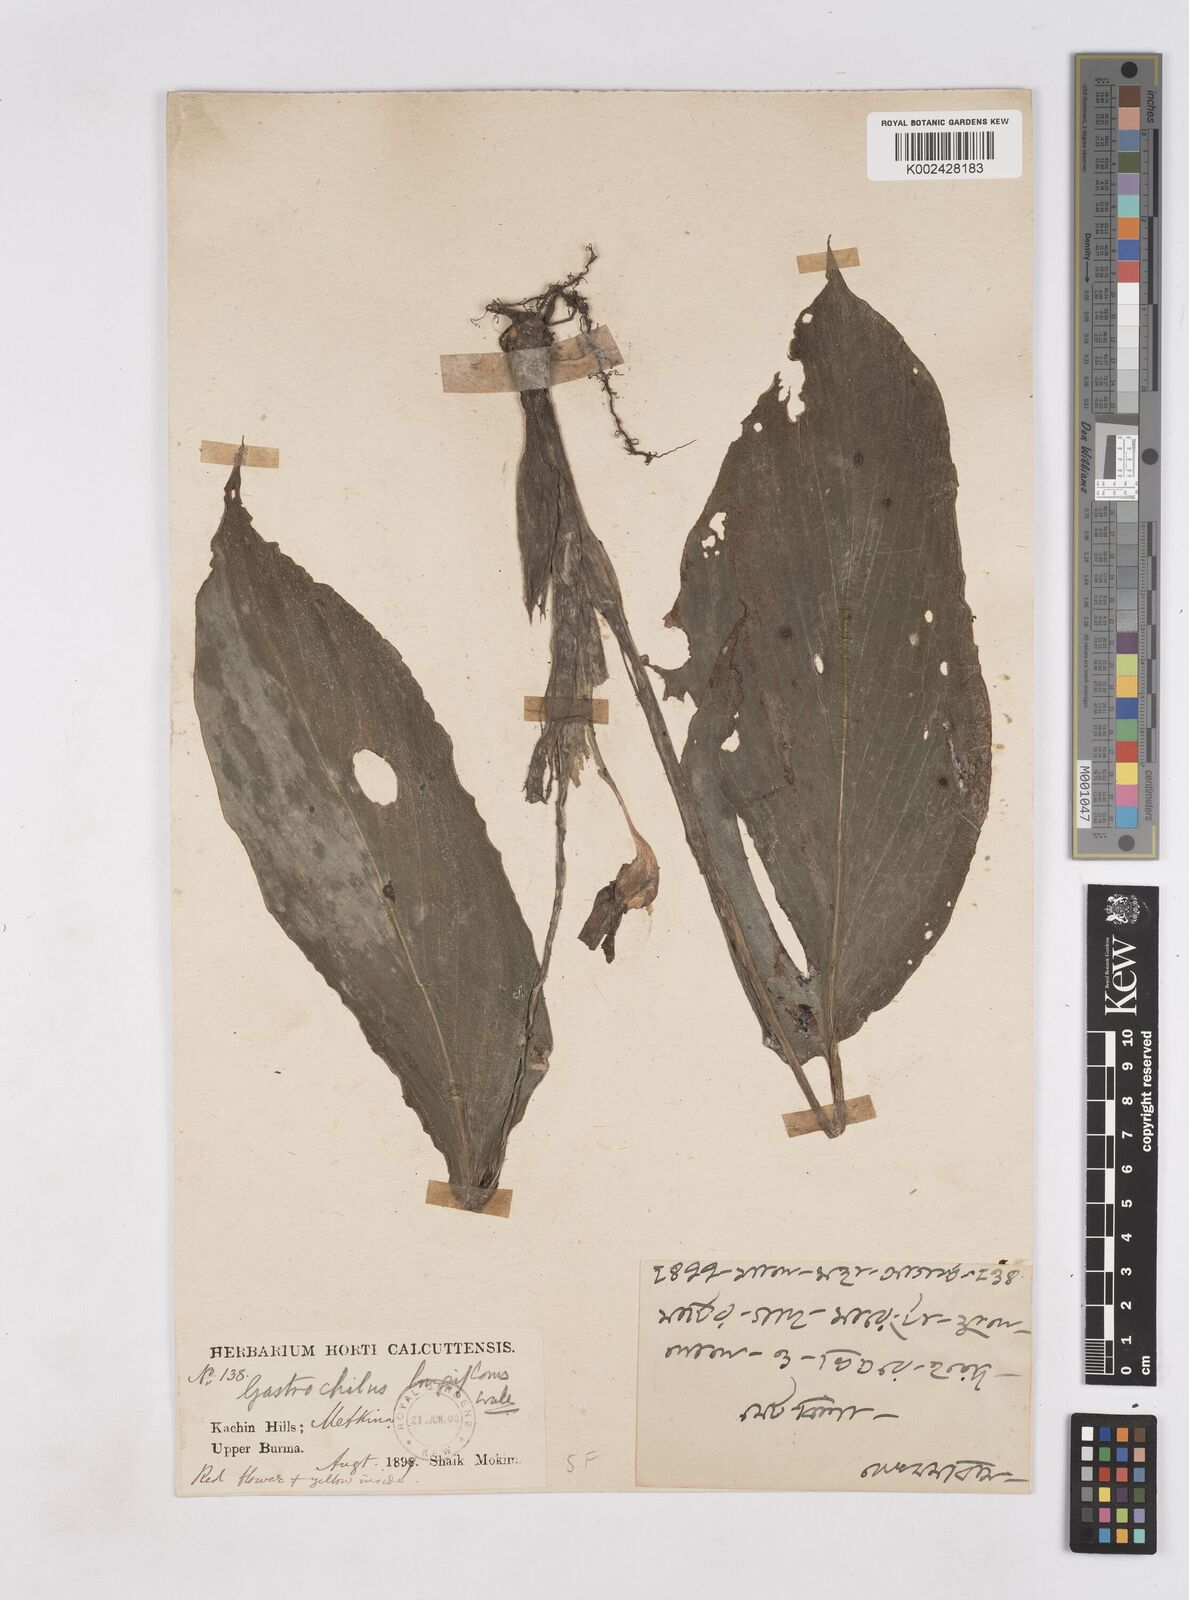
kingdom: Plantae
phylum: Tracheophyta
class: Liliopsida
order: Zingiberales
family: Zingiberaceae
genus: Boesenbergia
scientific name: Boesenbergia longiflora
